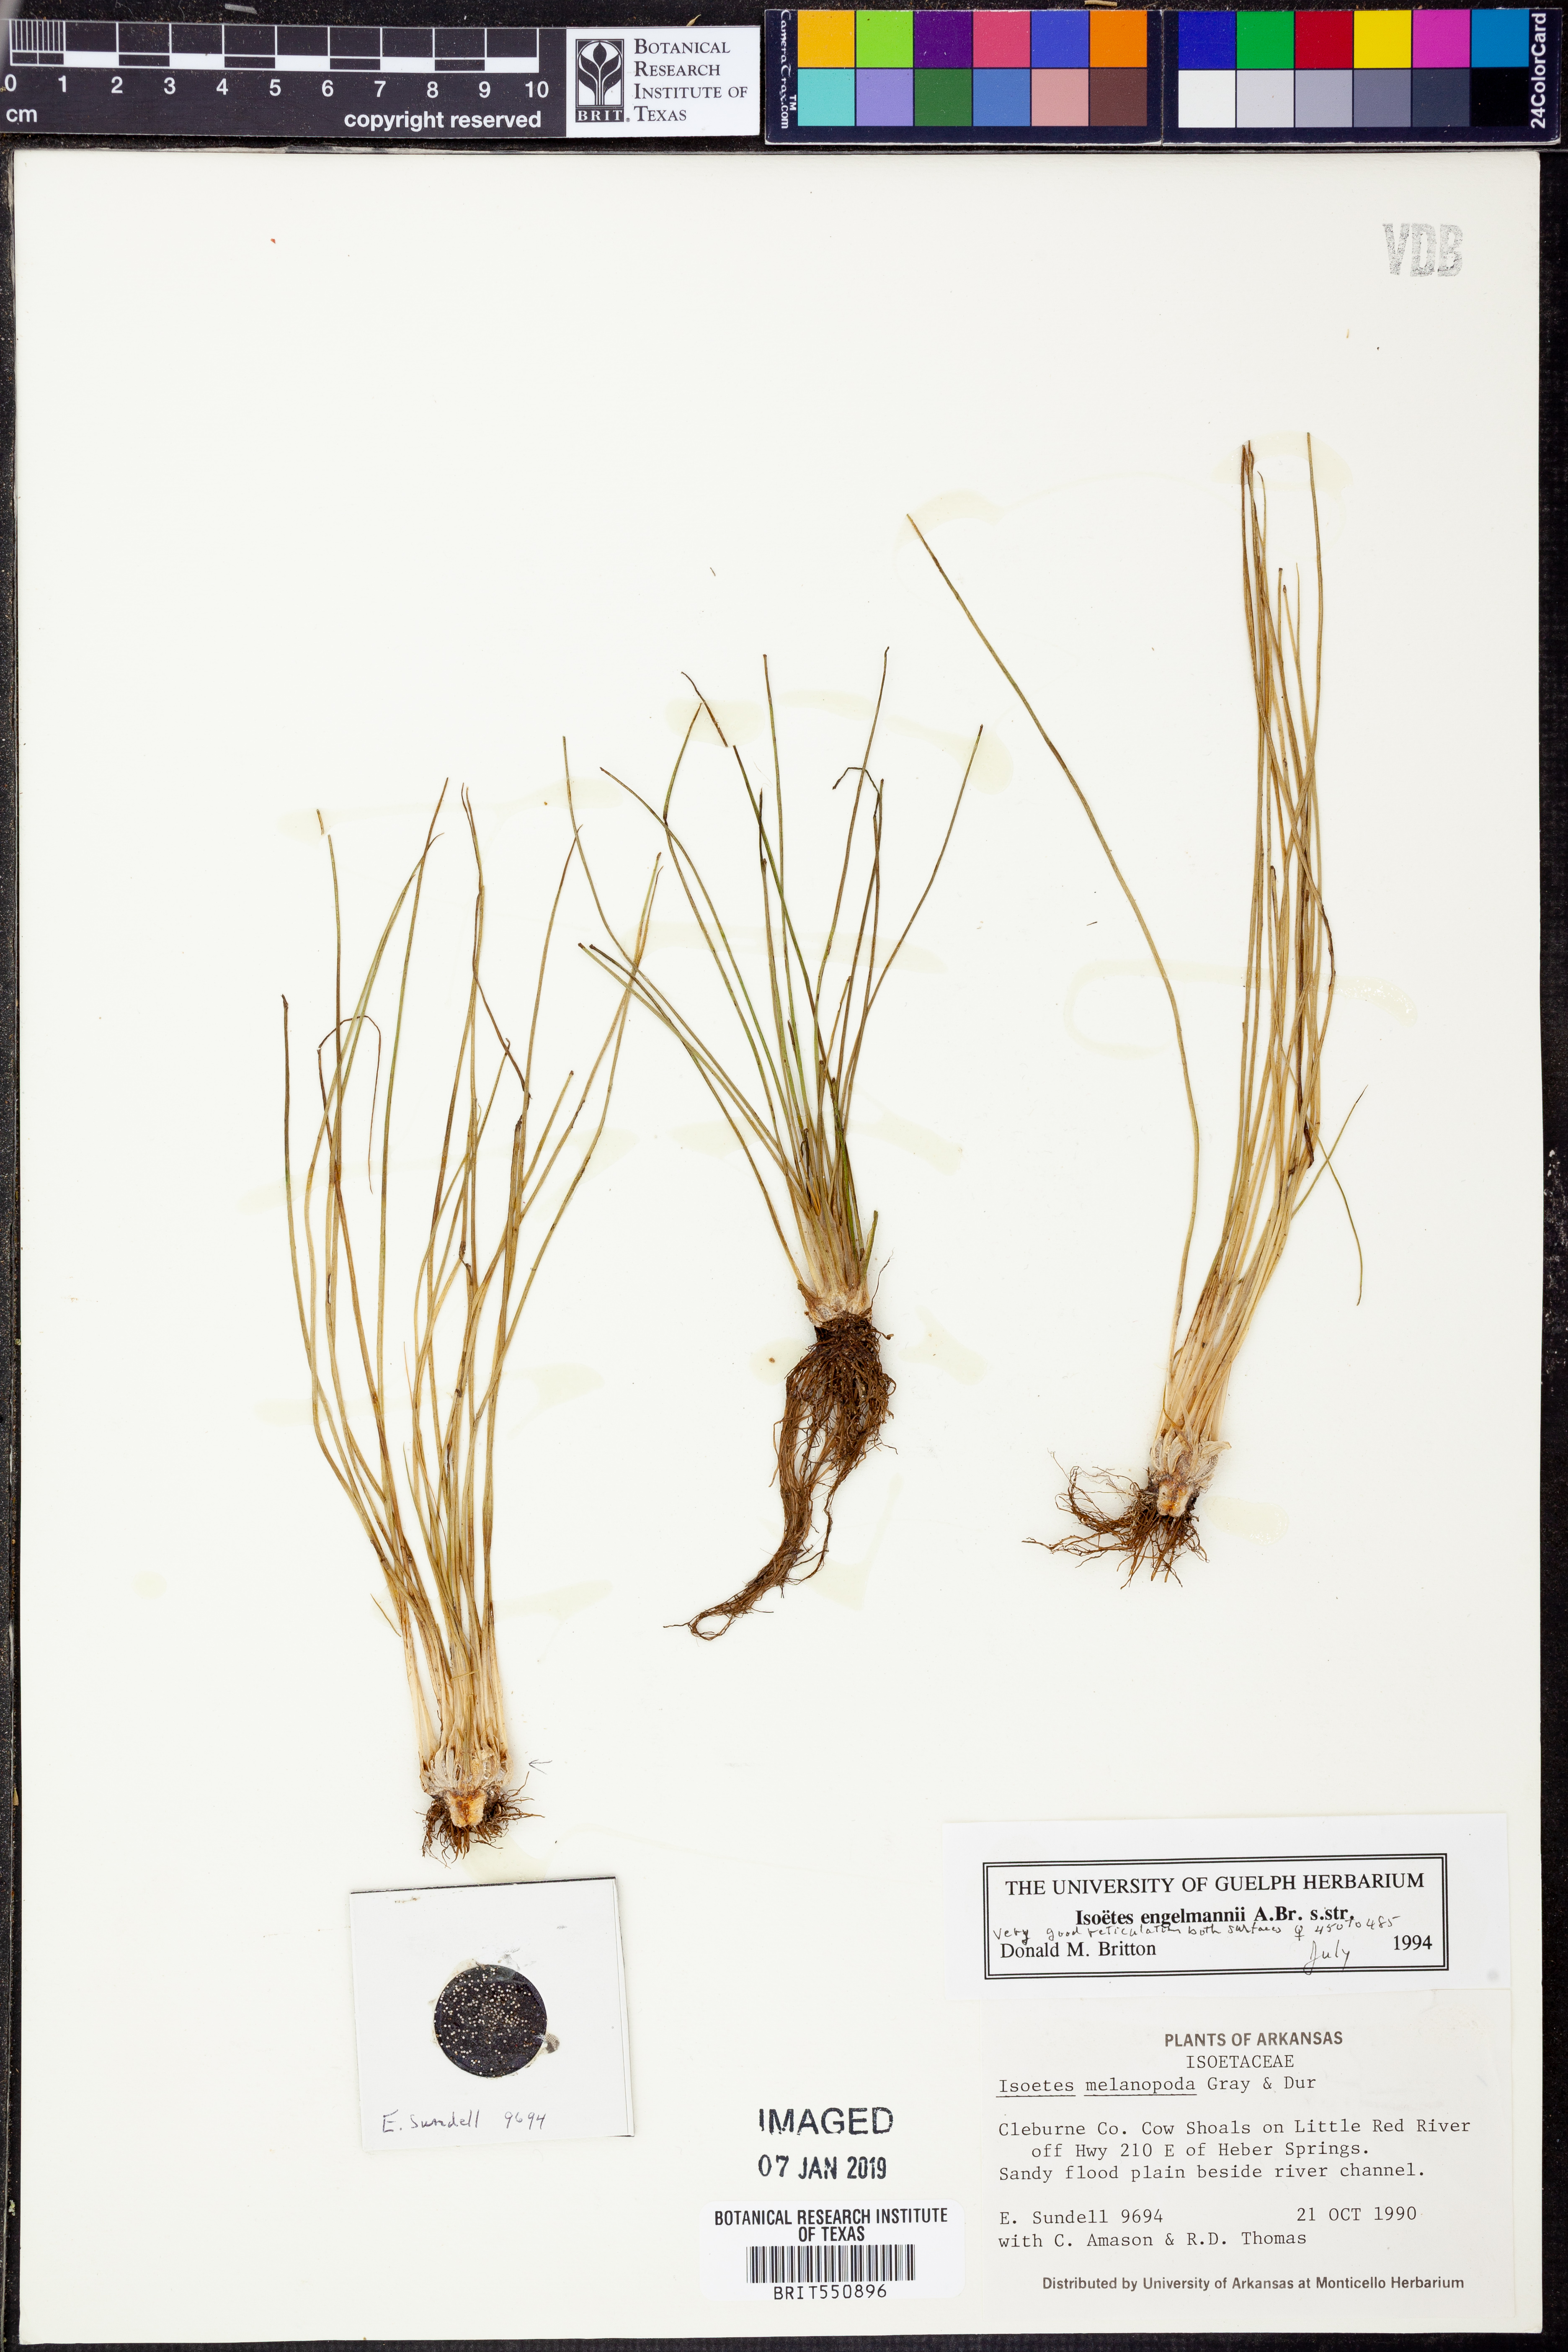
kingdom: Plantae
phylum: Tracheophyta
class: Lycopodiopsida
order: Isoetales
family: Isoetaceae
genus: Isoetes
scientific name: Isoetes engelmannii
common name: Engelmann's quillwort
